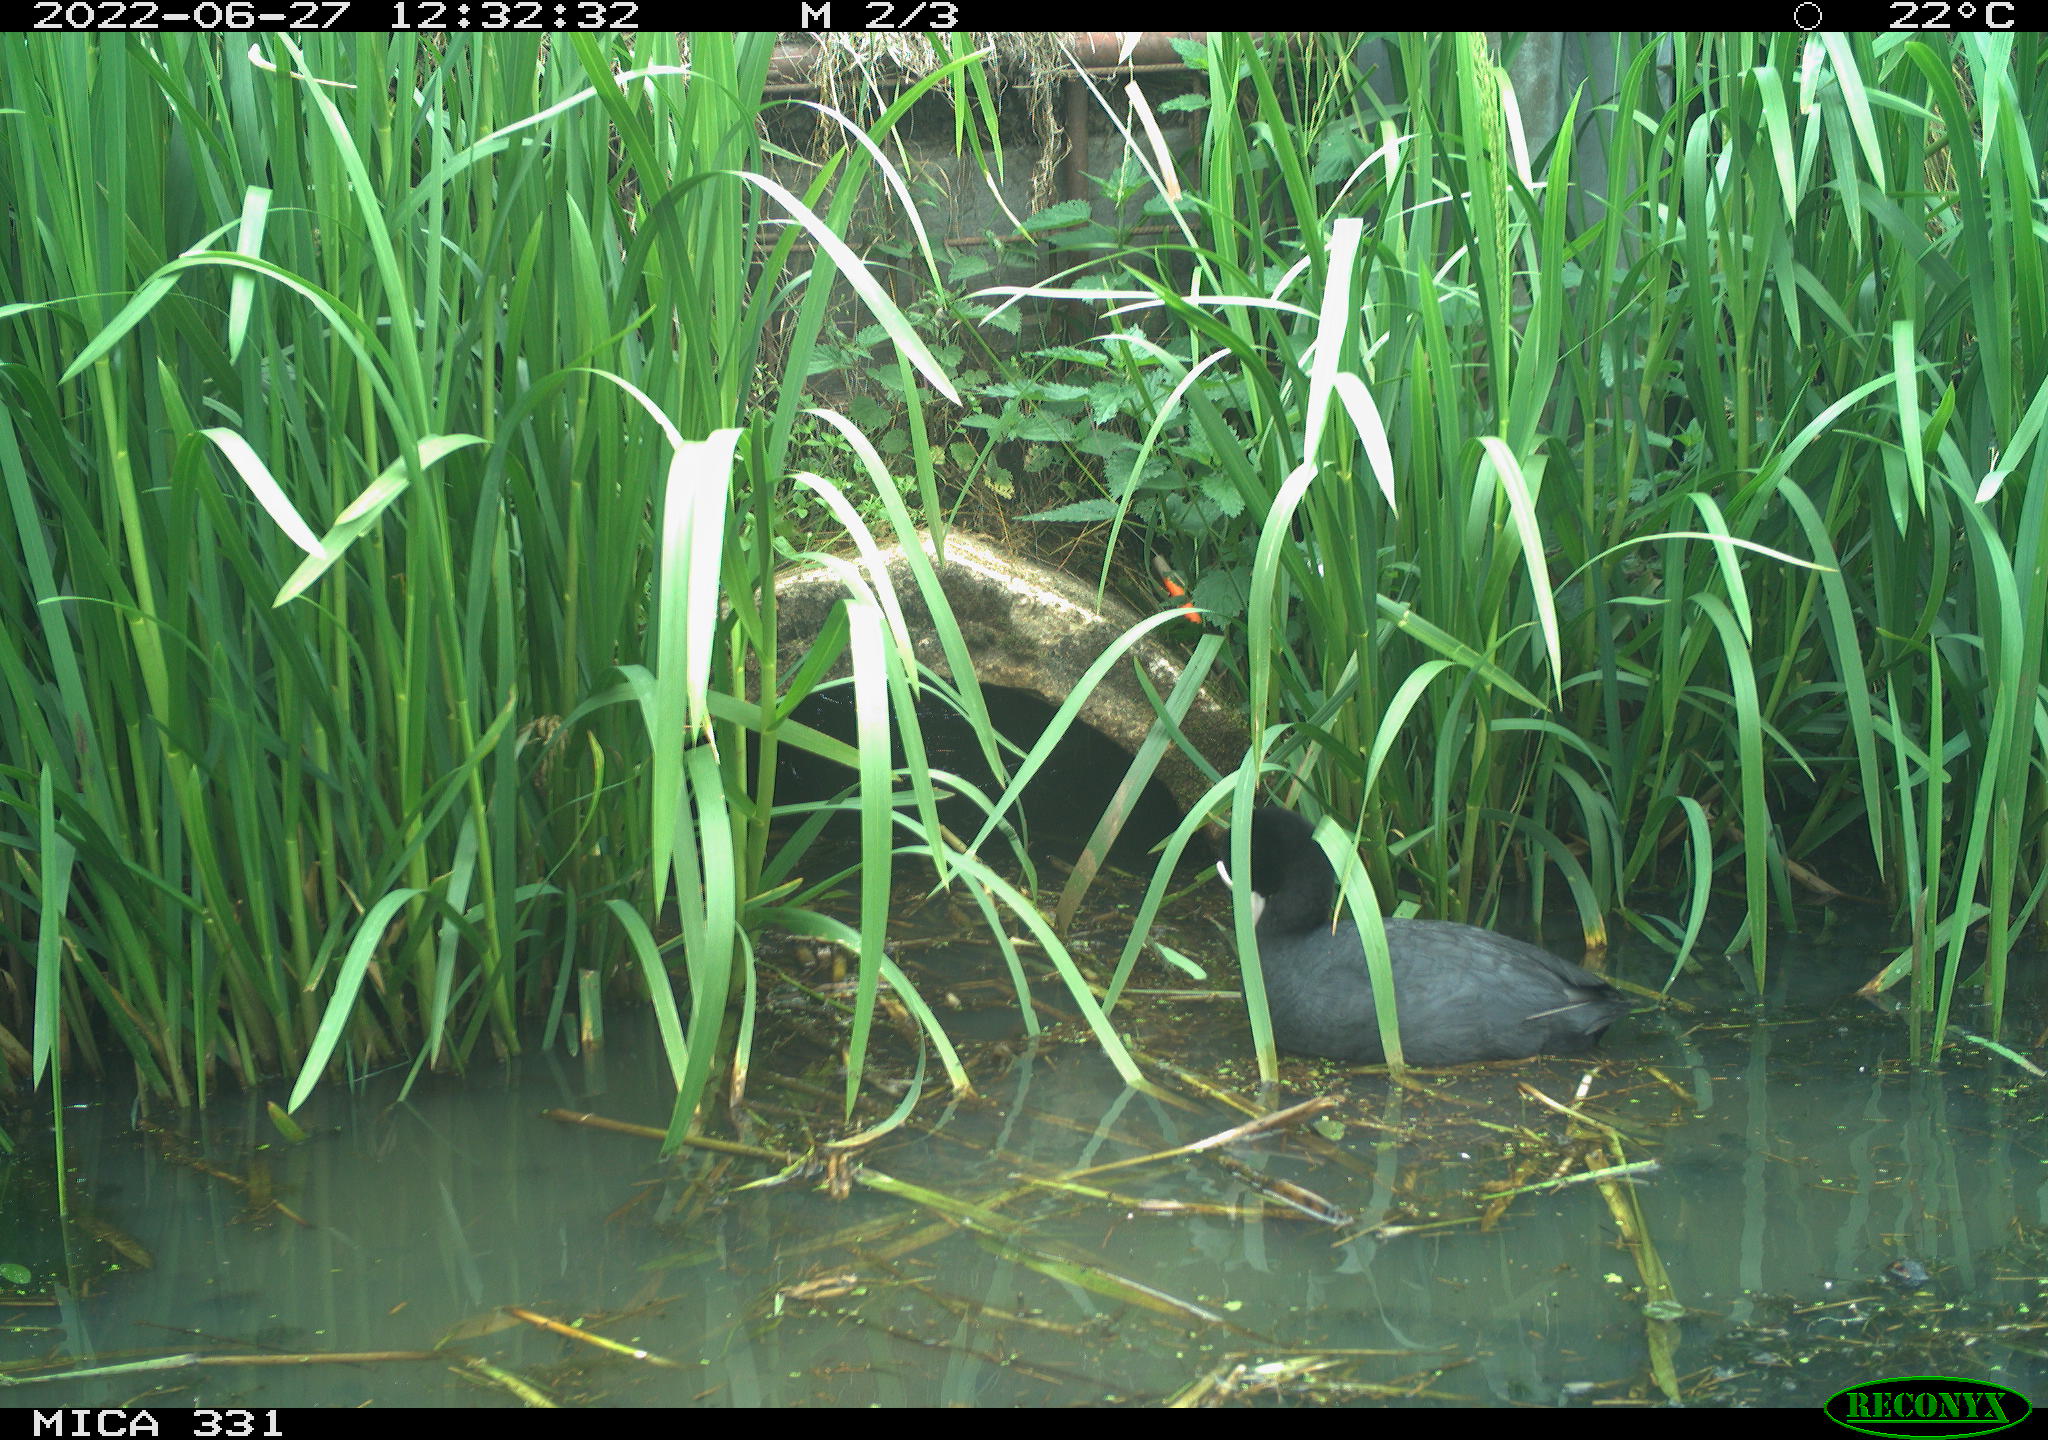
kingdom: Animalia
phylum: Chordata
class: Aves
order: Gruiformes
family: Rallidae
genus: Fulica
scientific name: Fulica atra
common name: Eurasian coot
